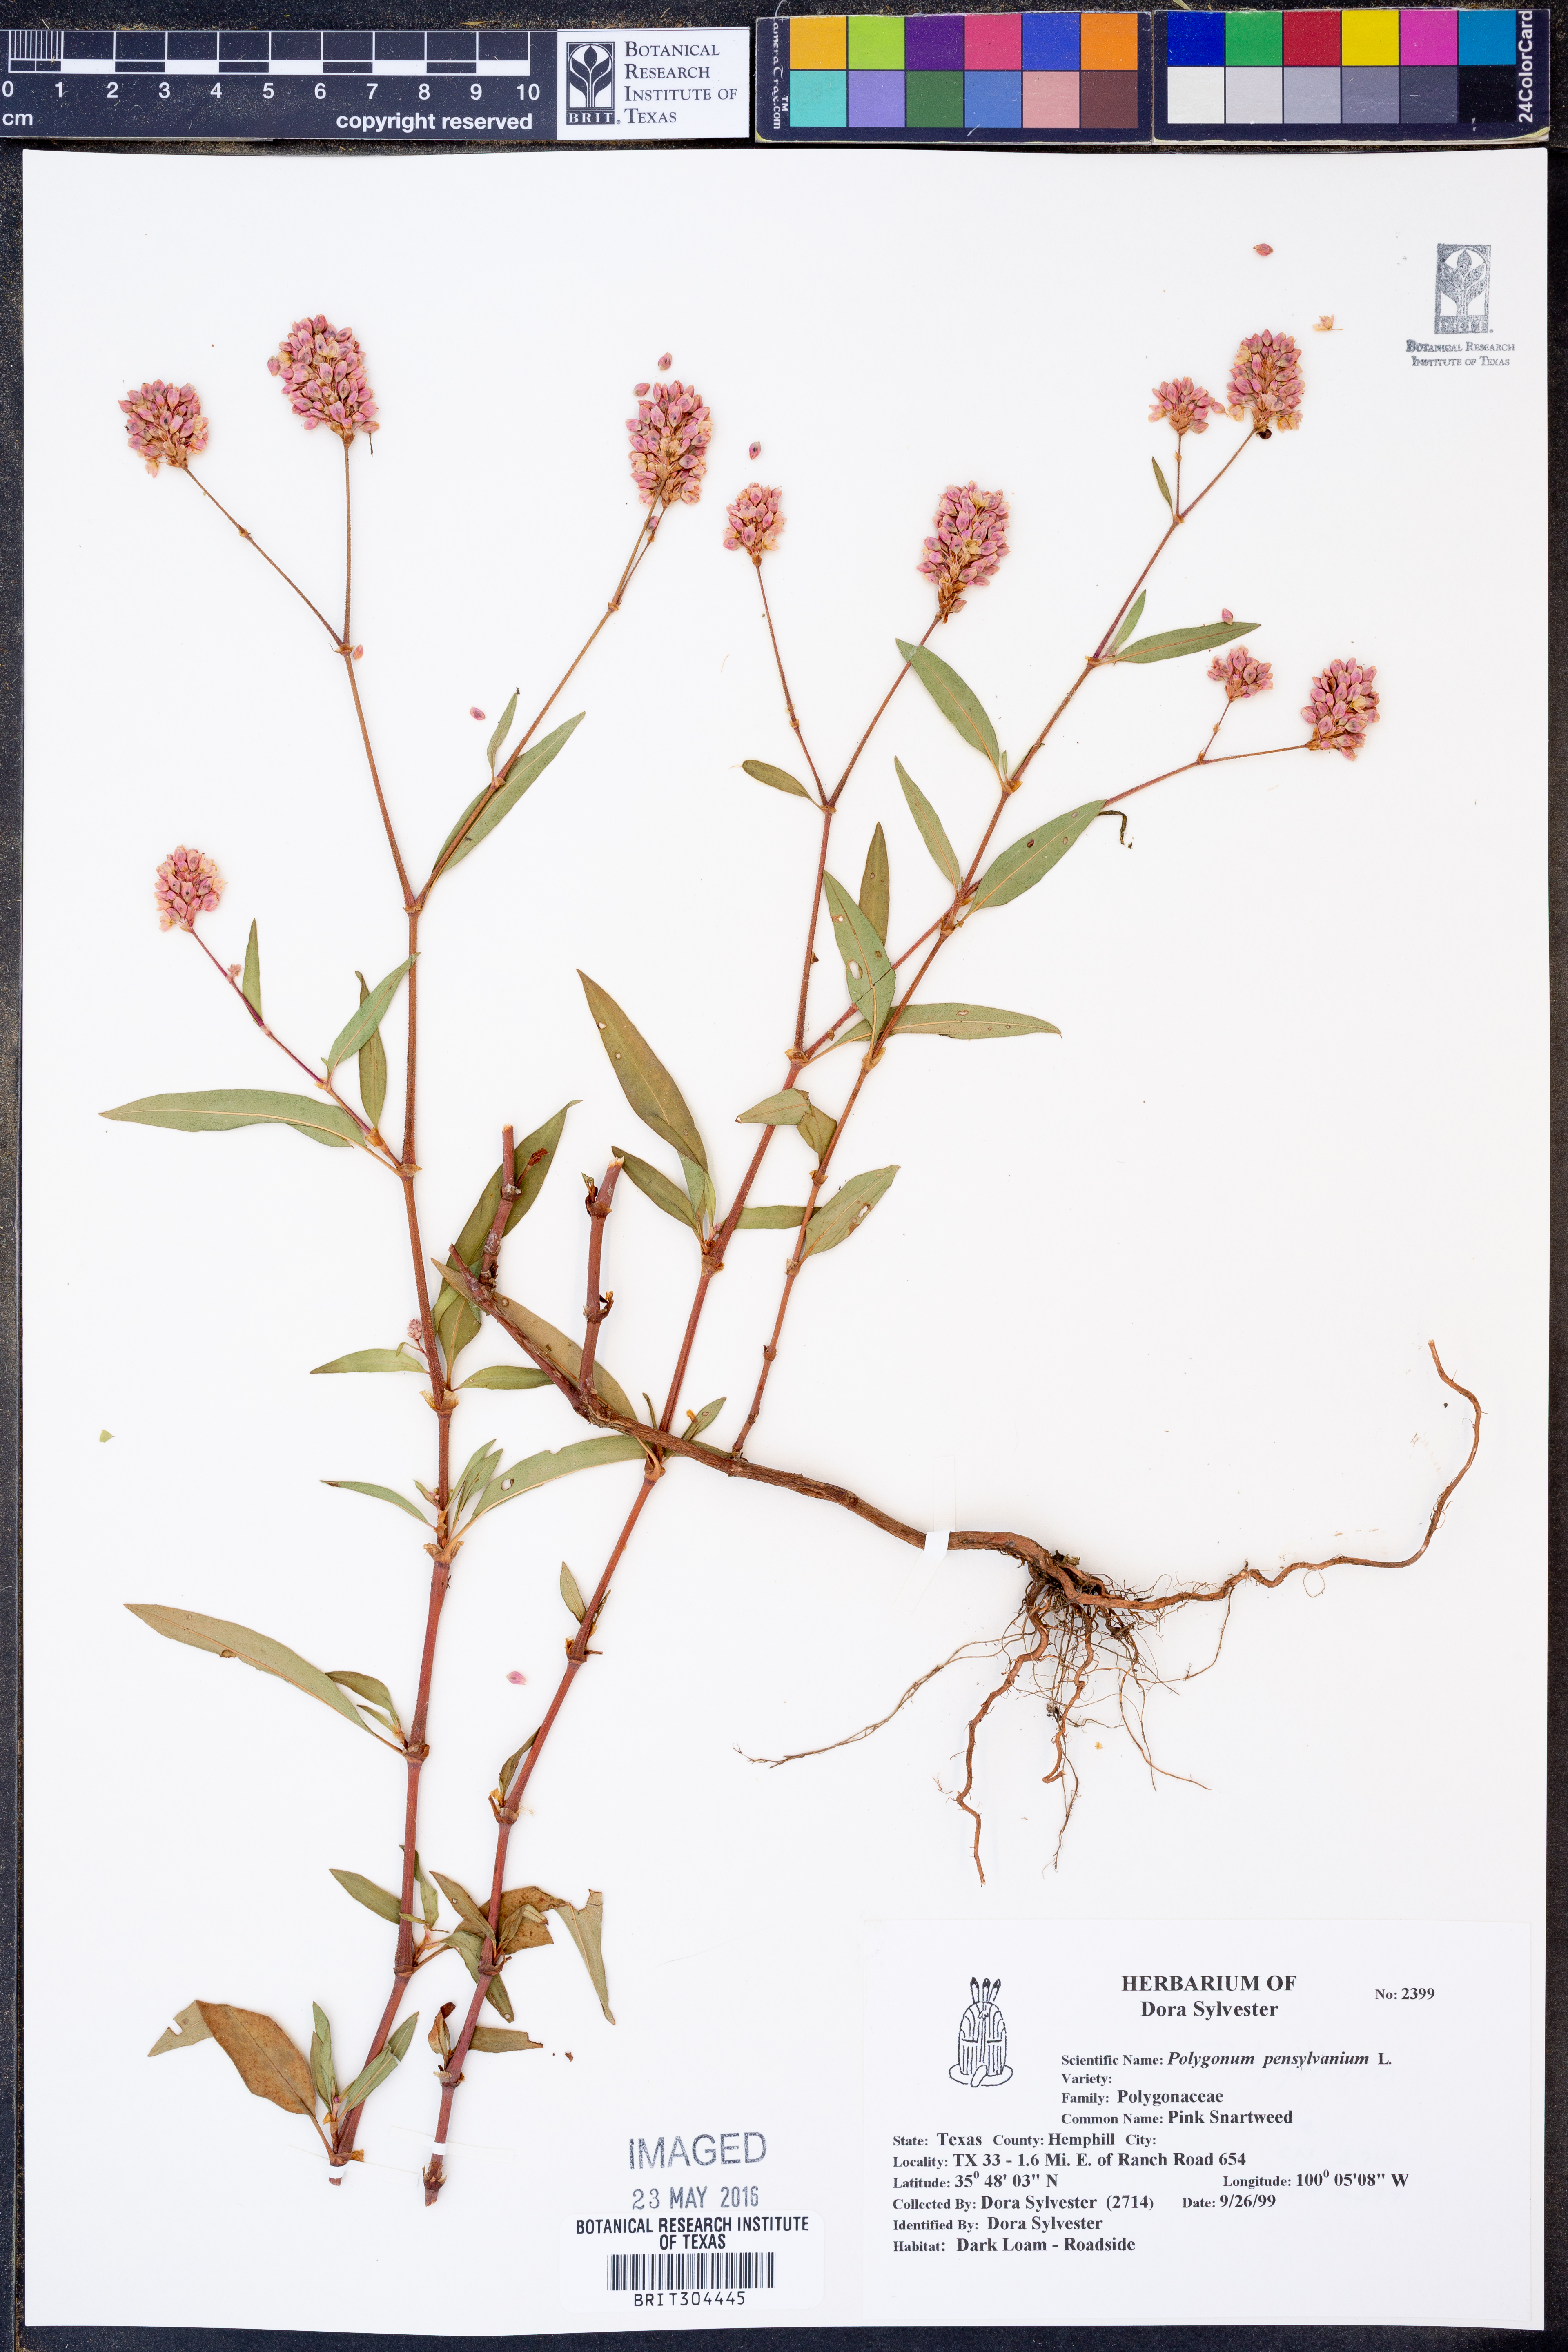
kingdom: Plantae
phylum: Tracheophyta
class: Magnoliopsida
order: Caryophyllales
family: Polygonaceae
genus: Persicaria
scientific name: Persicaria pensylvanica
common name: Pinkweed
